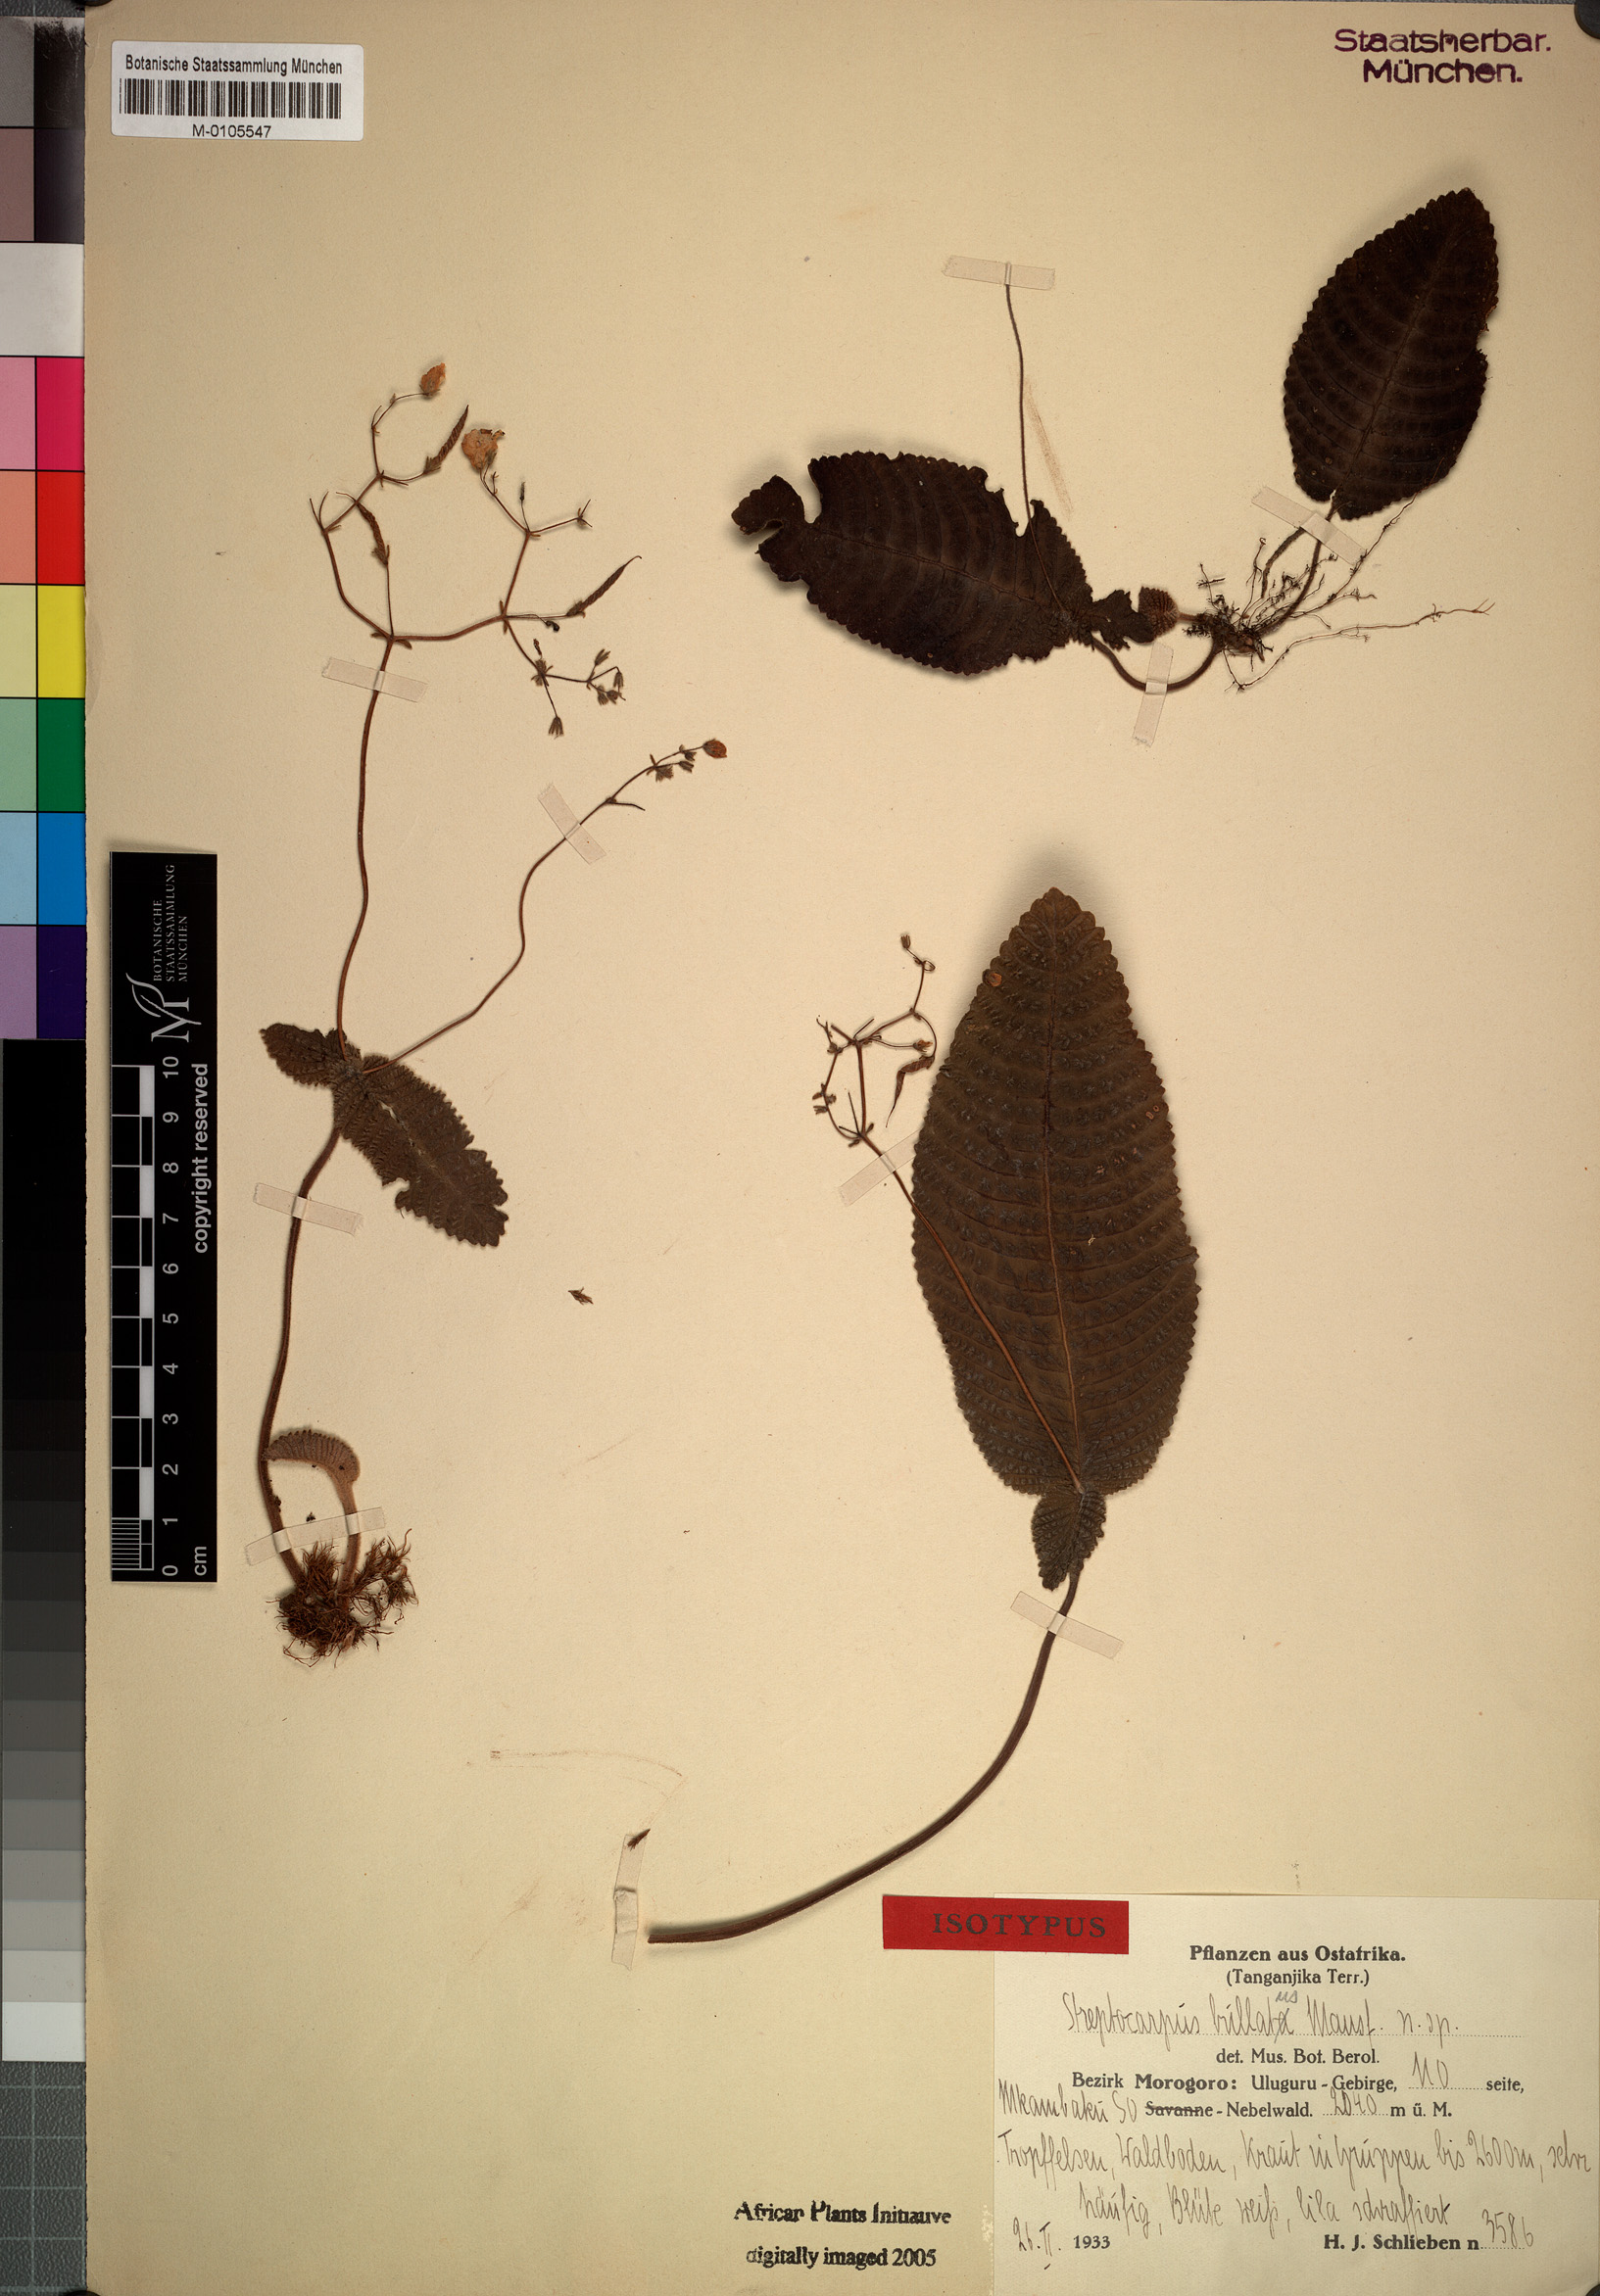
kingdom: Plantae
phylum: Tracheophyta
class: Magnoliopsida
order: Lamiales
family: Gesneriaceae
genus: Streptocarpus
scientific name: Streptocarpus bullatus
